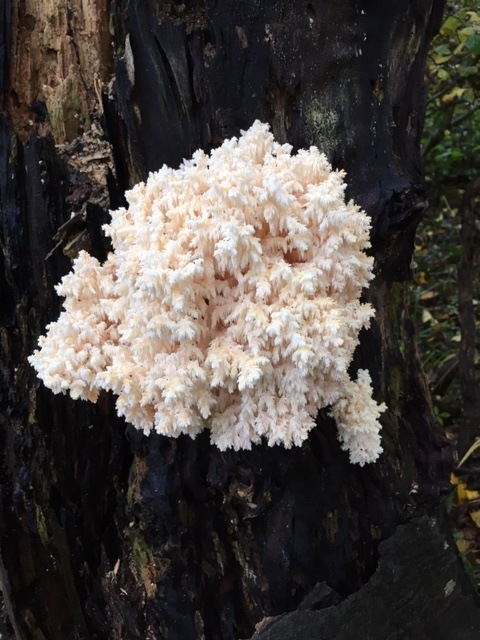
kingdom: Fungi
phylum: Basidiomycota
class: Agaricomycetes
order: Russulales
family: Hericiaceae
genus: Hericium
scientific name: Hericium coralloides
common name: koralpigsvamp
